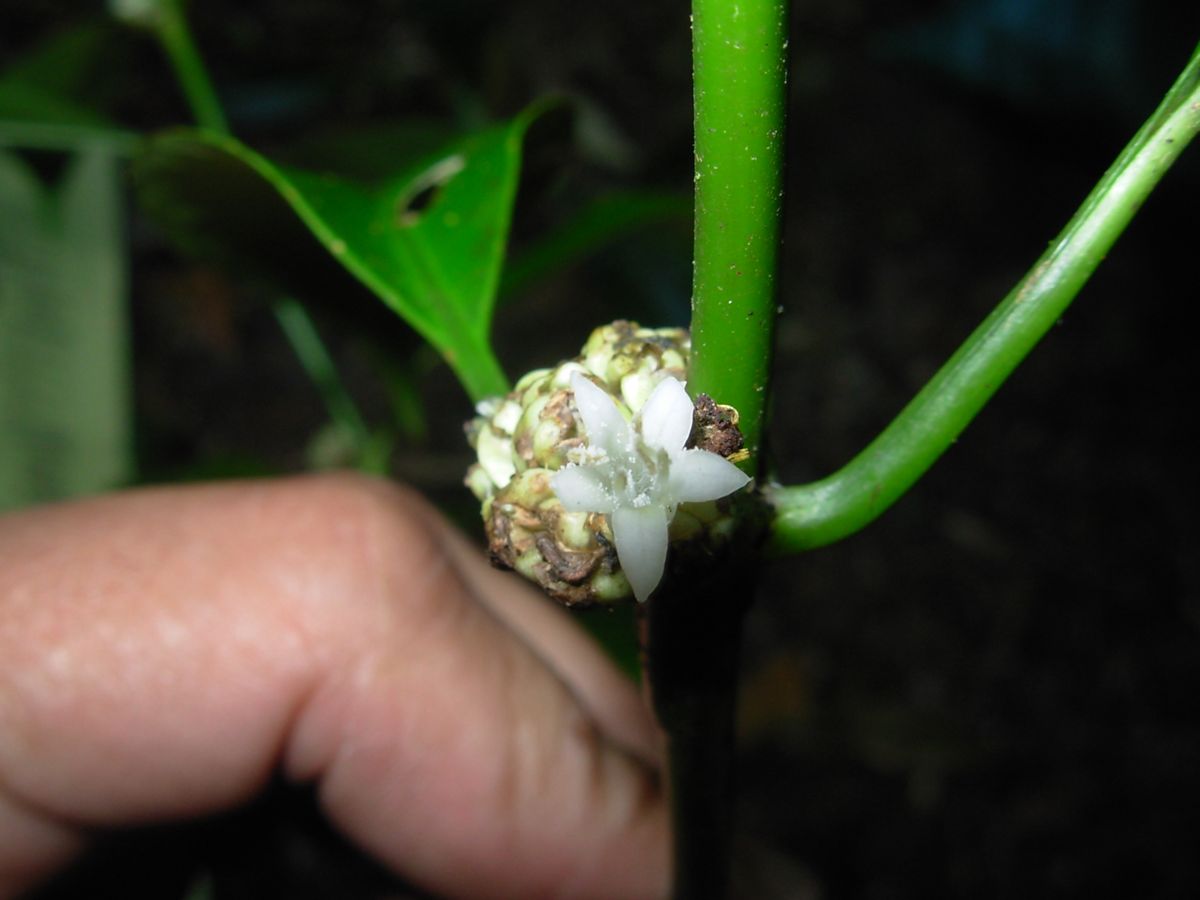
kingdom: Plantae
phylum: Tracheophyta
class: Magnoliopsida
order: Gentianales
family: Rubiaceae
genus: Palicourea
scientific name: Palicourea axillaris
